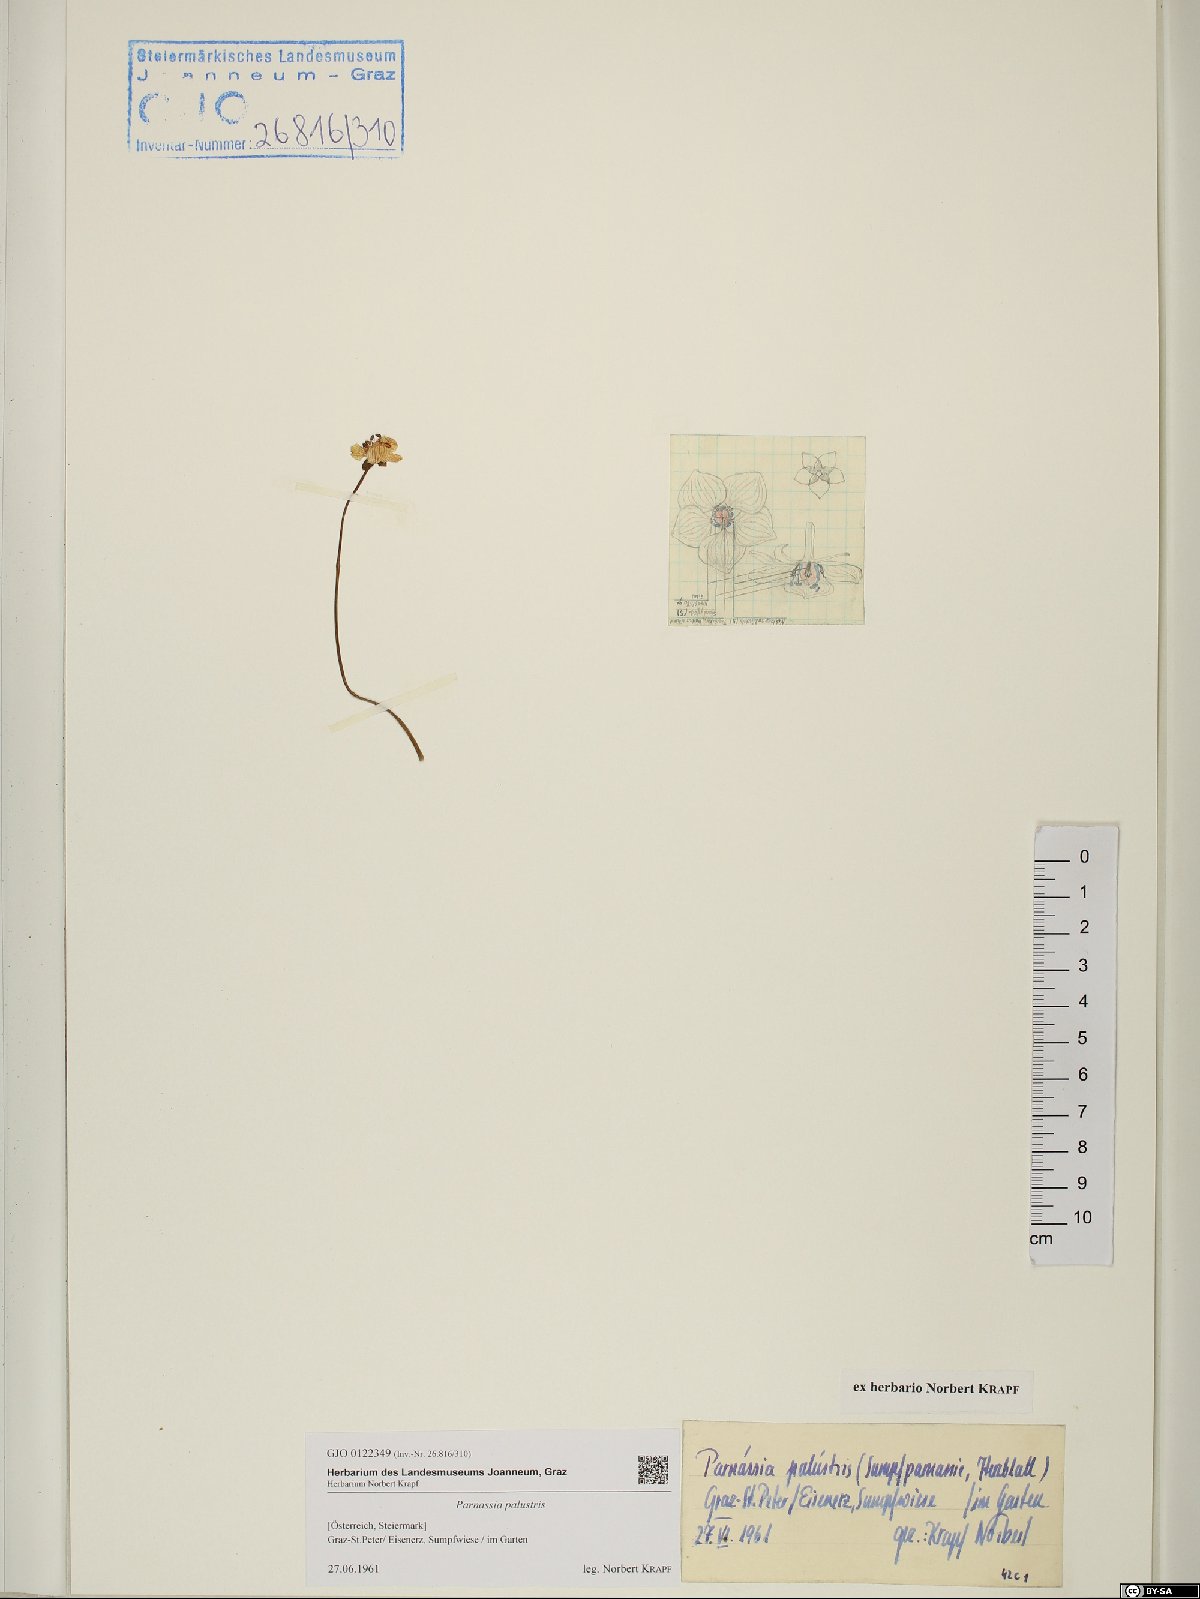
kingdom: Plantae
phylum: Tracheophyta
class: Magnoliopsida
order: Celastrales
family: Parnassiaceae
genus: Parnassia
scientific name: Parnassia palustris
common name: Grass-of-parnassus
